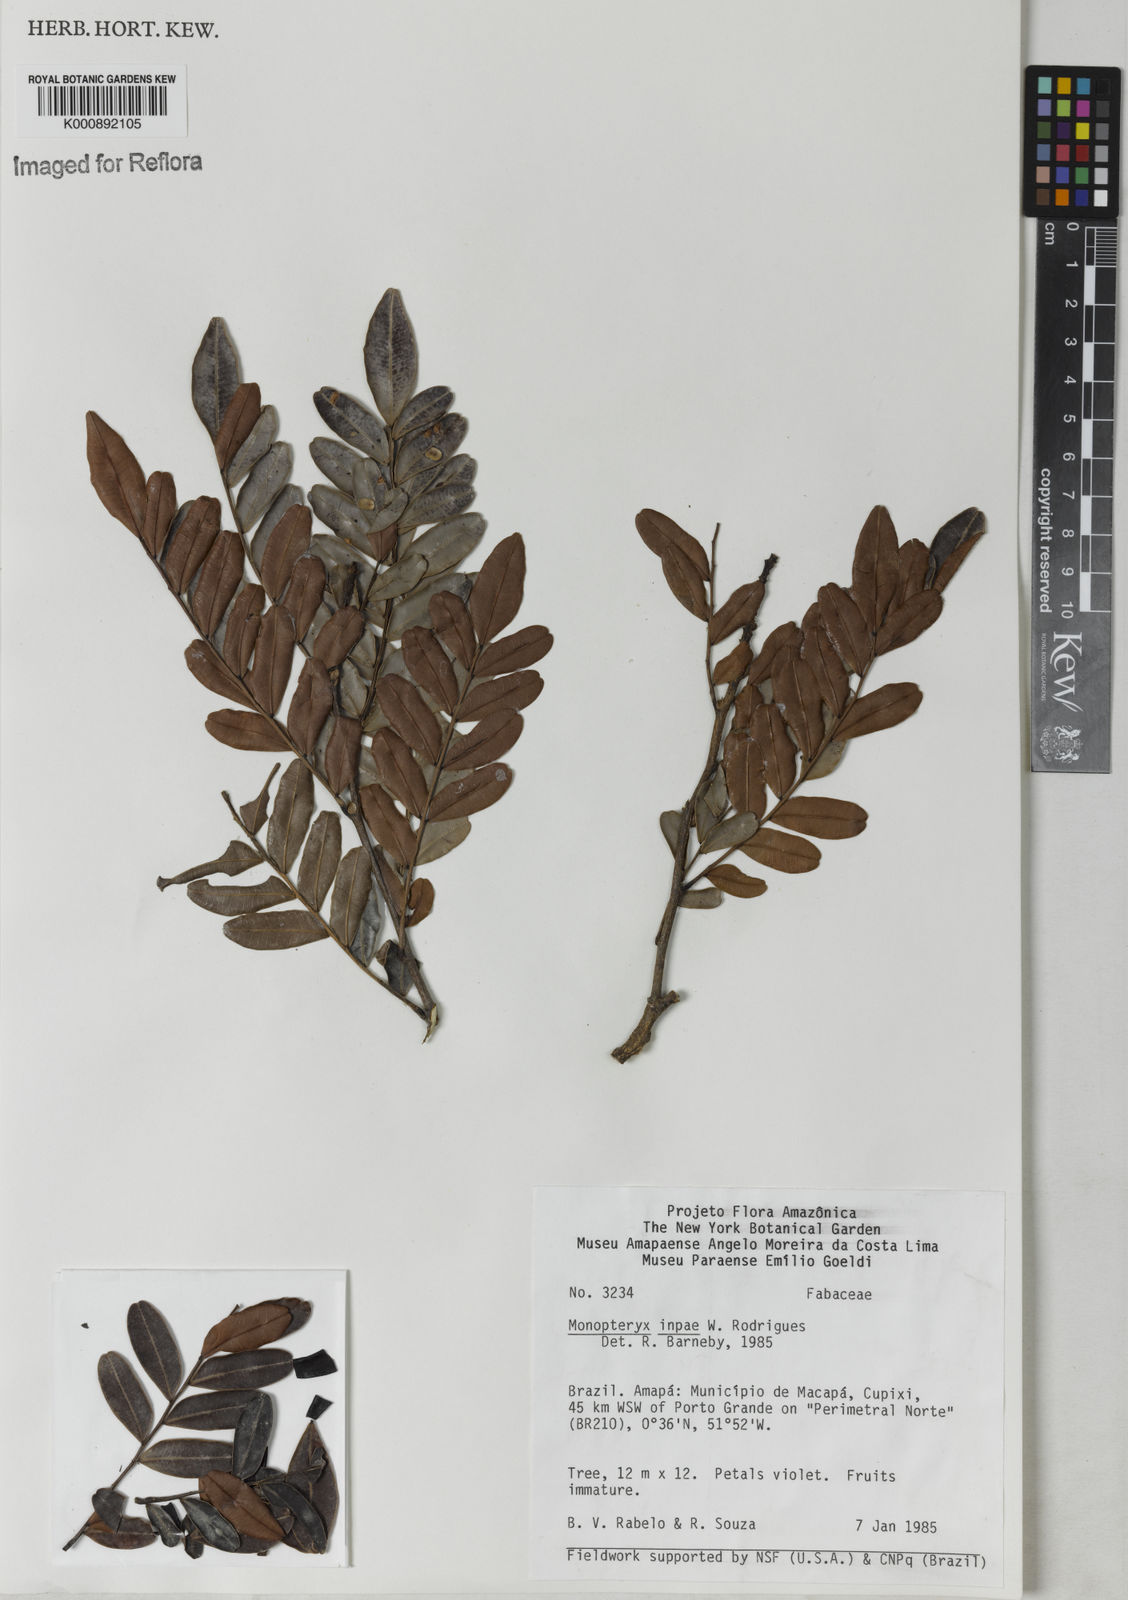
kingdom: Plantae
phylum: Tracheophyta
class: Magnoliopsida
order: Fabales
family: Fabaceae
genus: Monopteryx
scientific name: Monopteryx inpae
